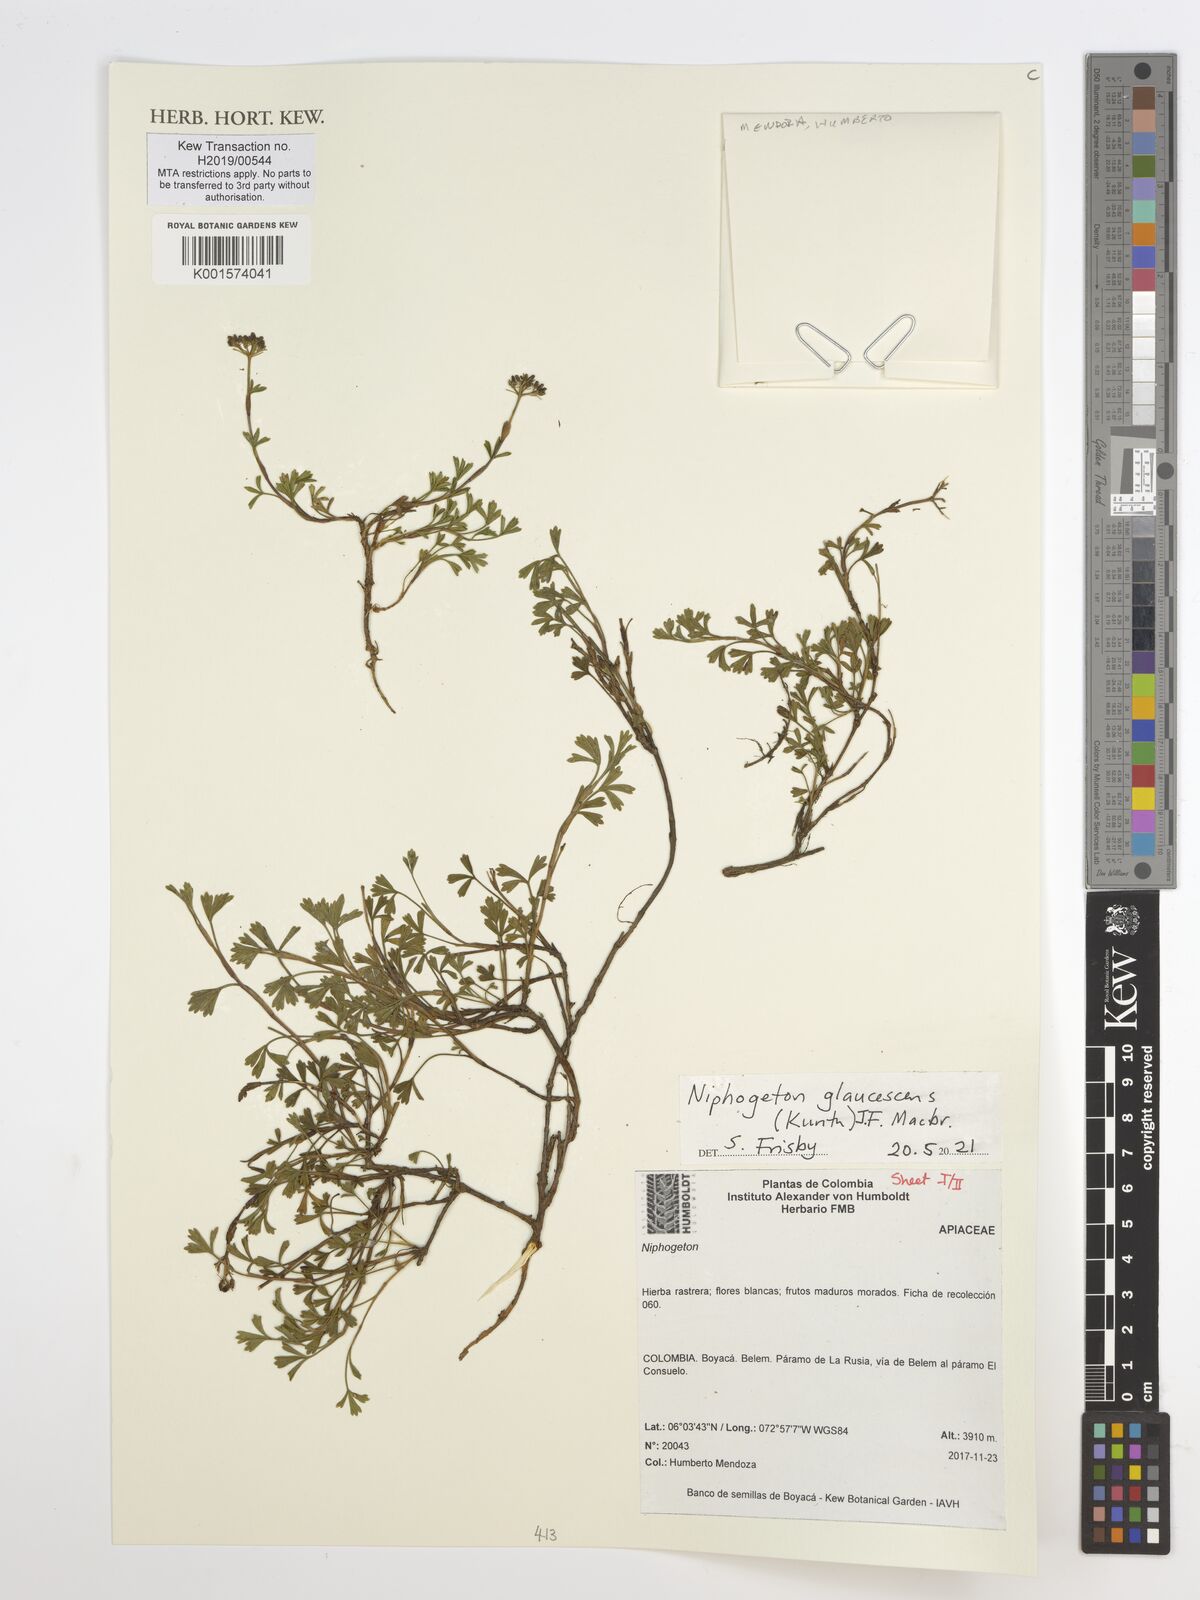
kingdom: Plantae
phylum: Tracheophyta
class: Magnoliopsida
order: Apiales
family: Apiaceae
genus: Niphogeton
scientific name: Niphogeton glaucescens
